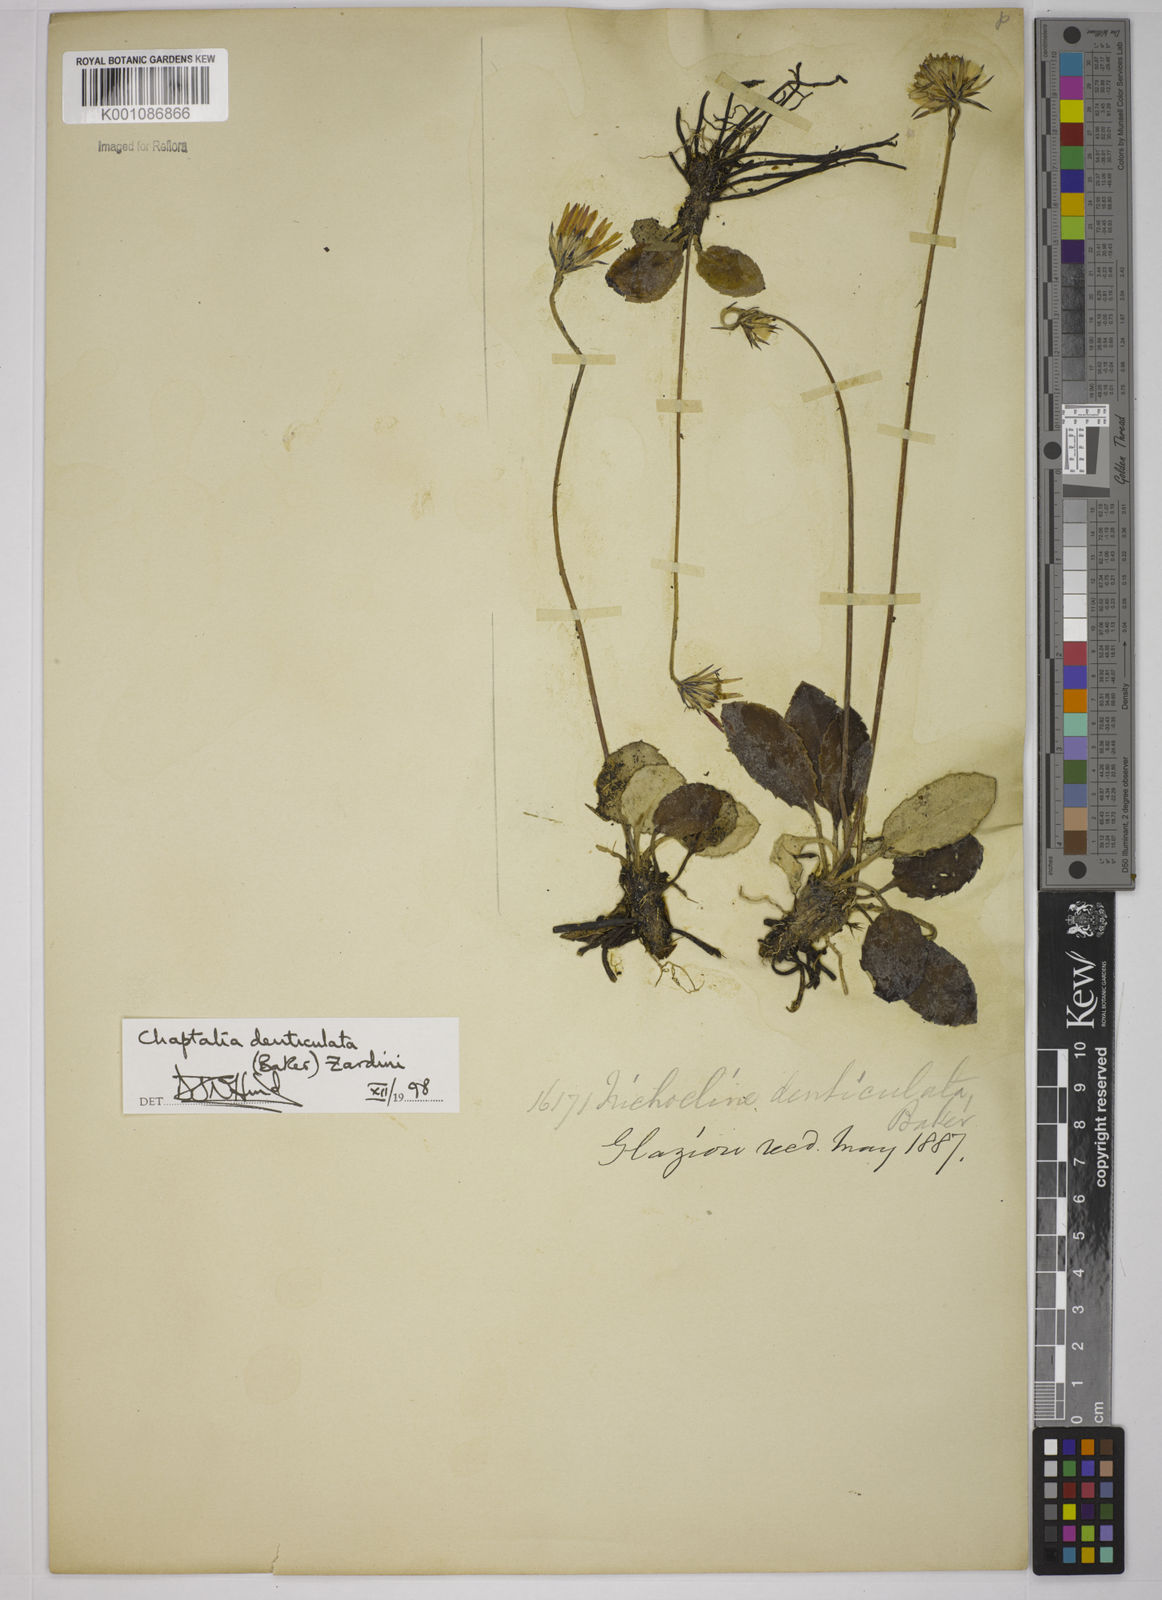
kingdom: Plantae
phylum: Tracheophyta
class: Magnoliopsida
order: Asterales
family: Asteraceae
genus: Chaptalia
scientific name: Chaptalia denticulata
